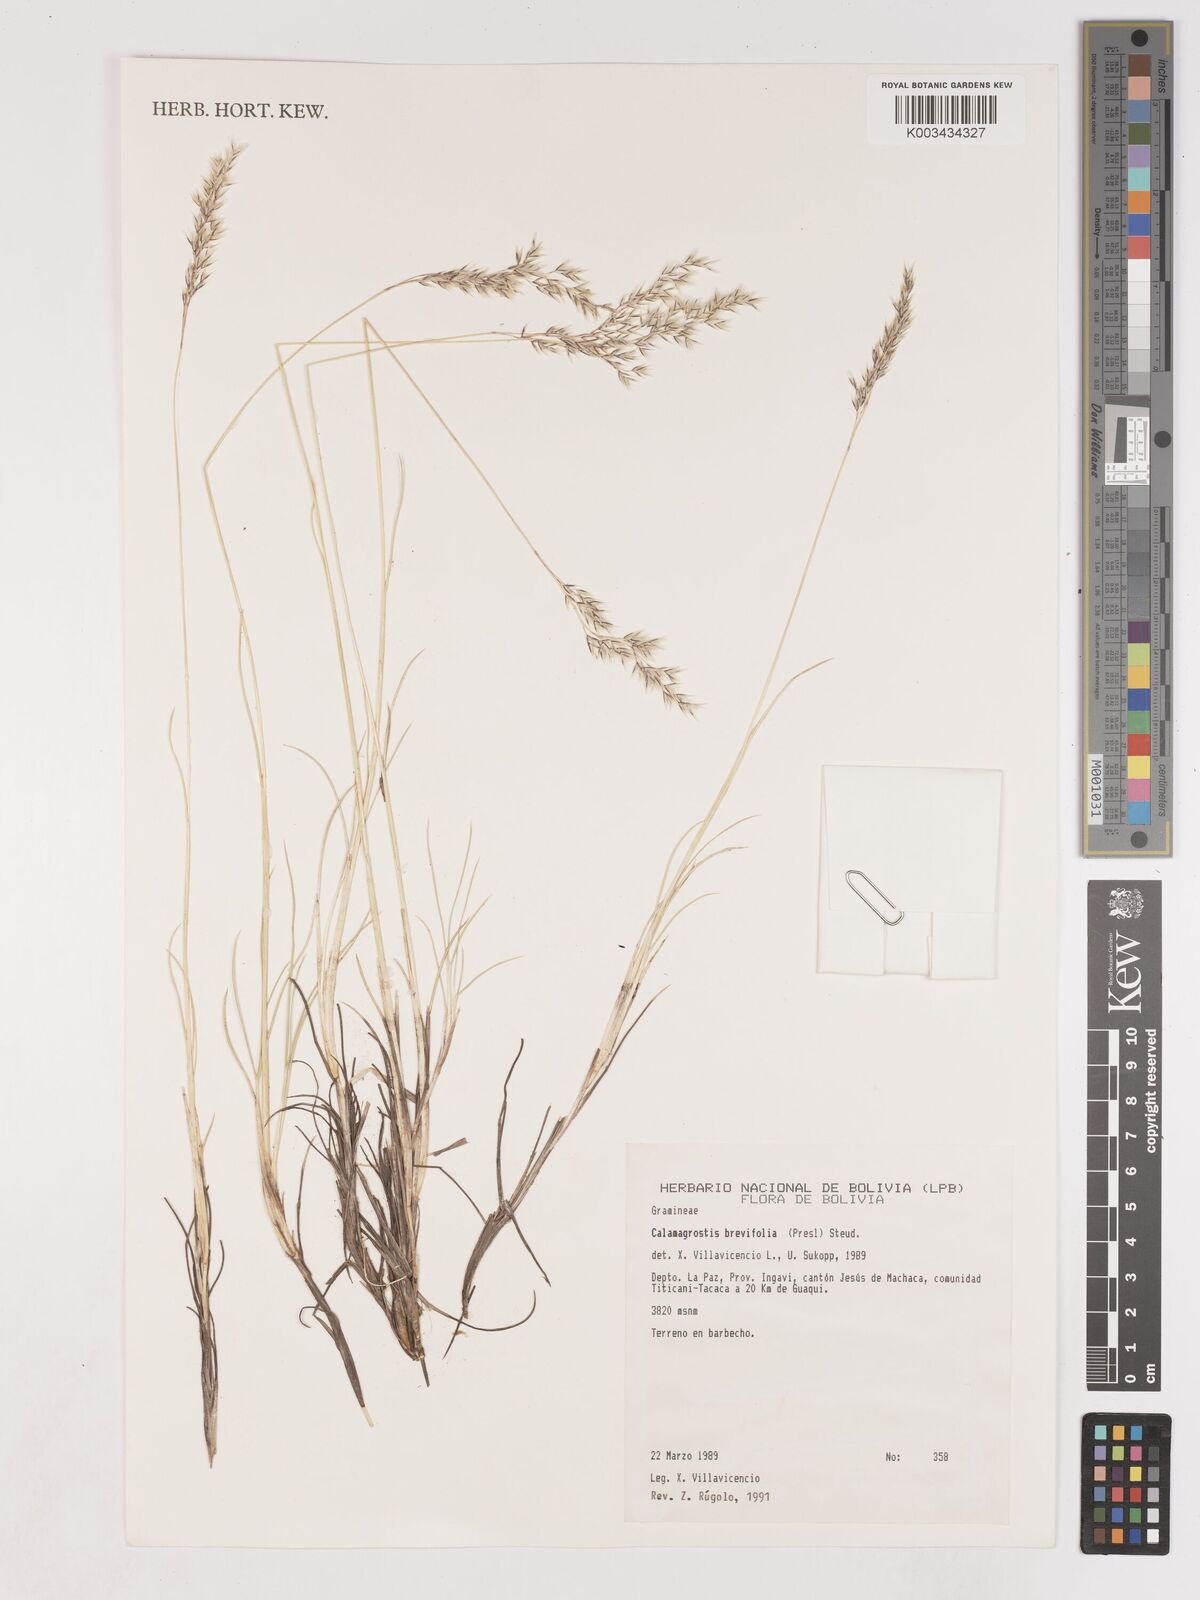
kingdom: Plantae
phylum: Tracheophyta
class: Liliopsida
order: Poales
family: Poaceae
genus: Cinnagrostis
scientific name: Cinnagrostis brevifolia
